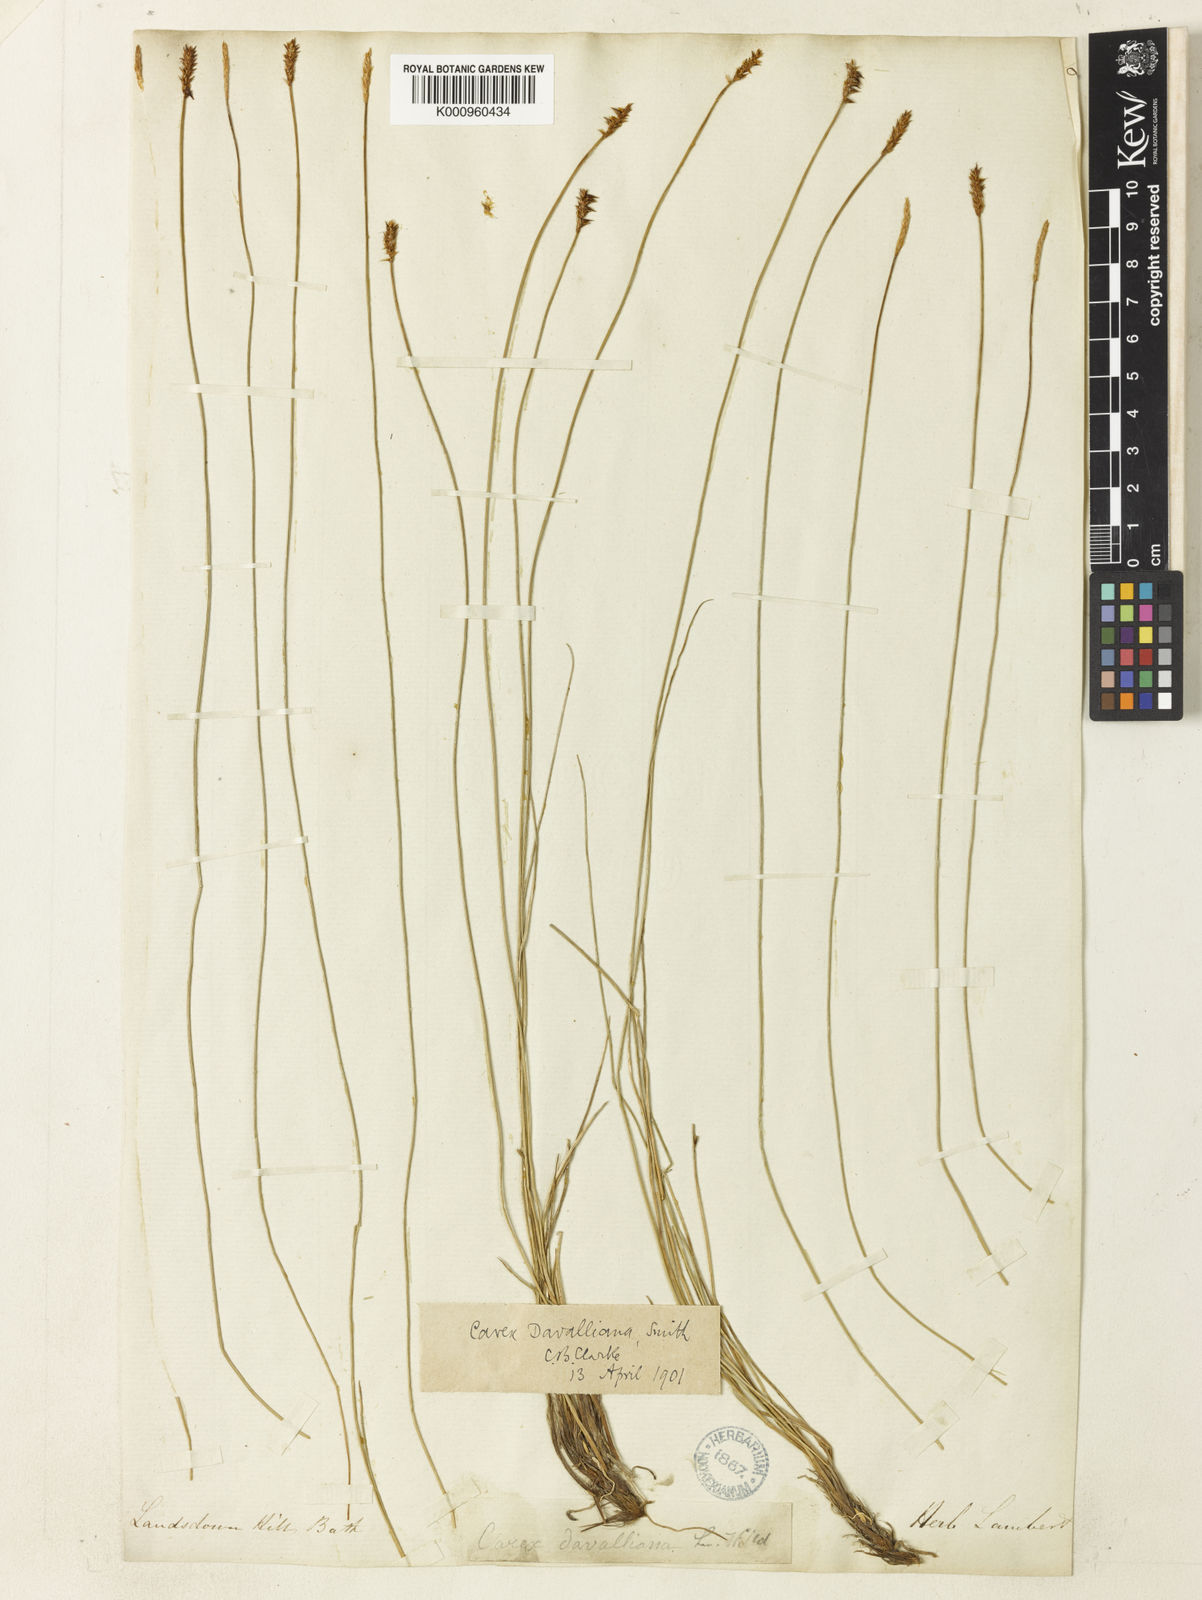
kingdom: Plantae
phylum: Tracheophyta
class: Liliopsida
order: Poales
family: Cyperaceae
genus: Carex
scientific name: Carex davalliana
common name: Davall's sedge
